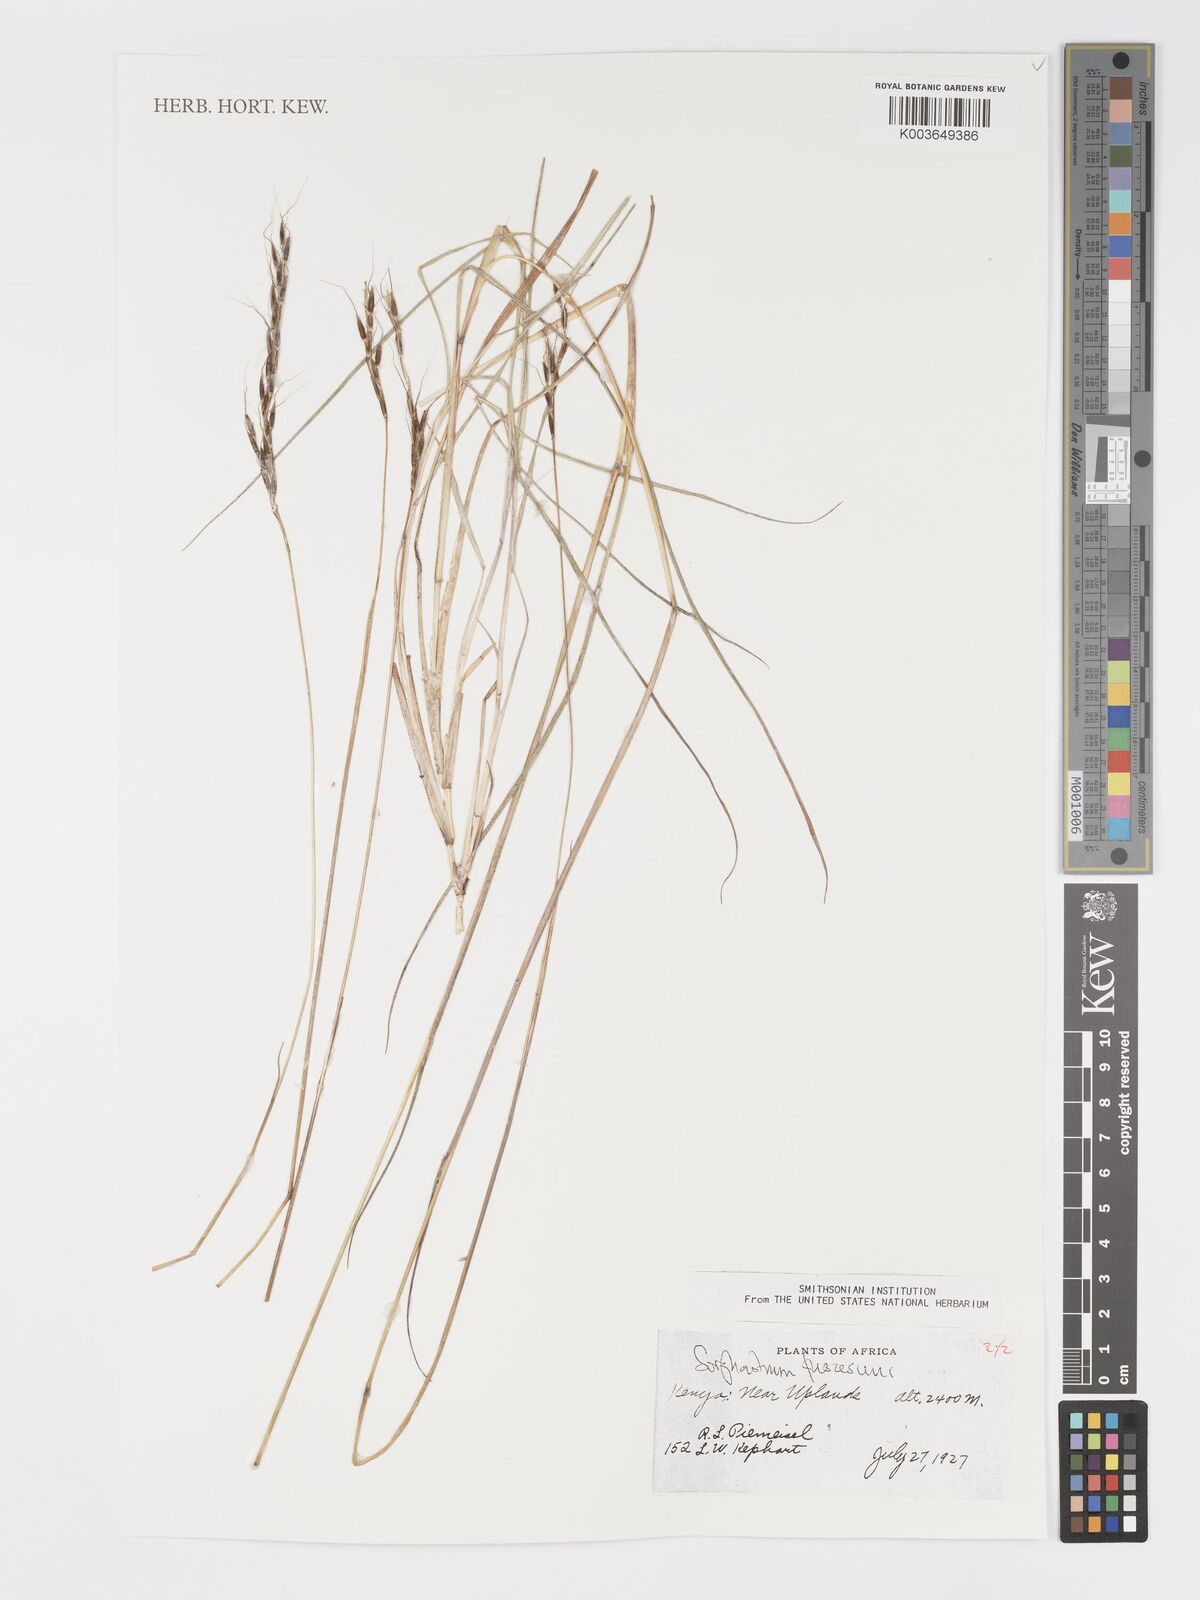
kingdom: Plantae
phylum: Tracheophyta
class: Liliopsida
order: Poales
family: Poaceae
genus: Sorghastrum
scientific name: Sorghastrum fuscescens
